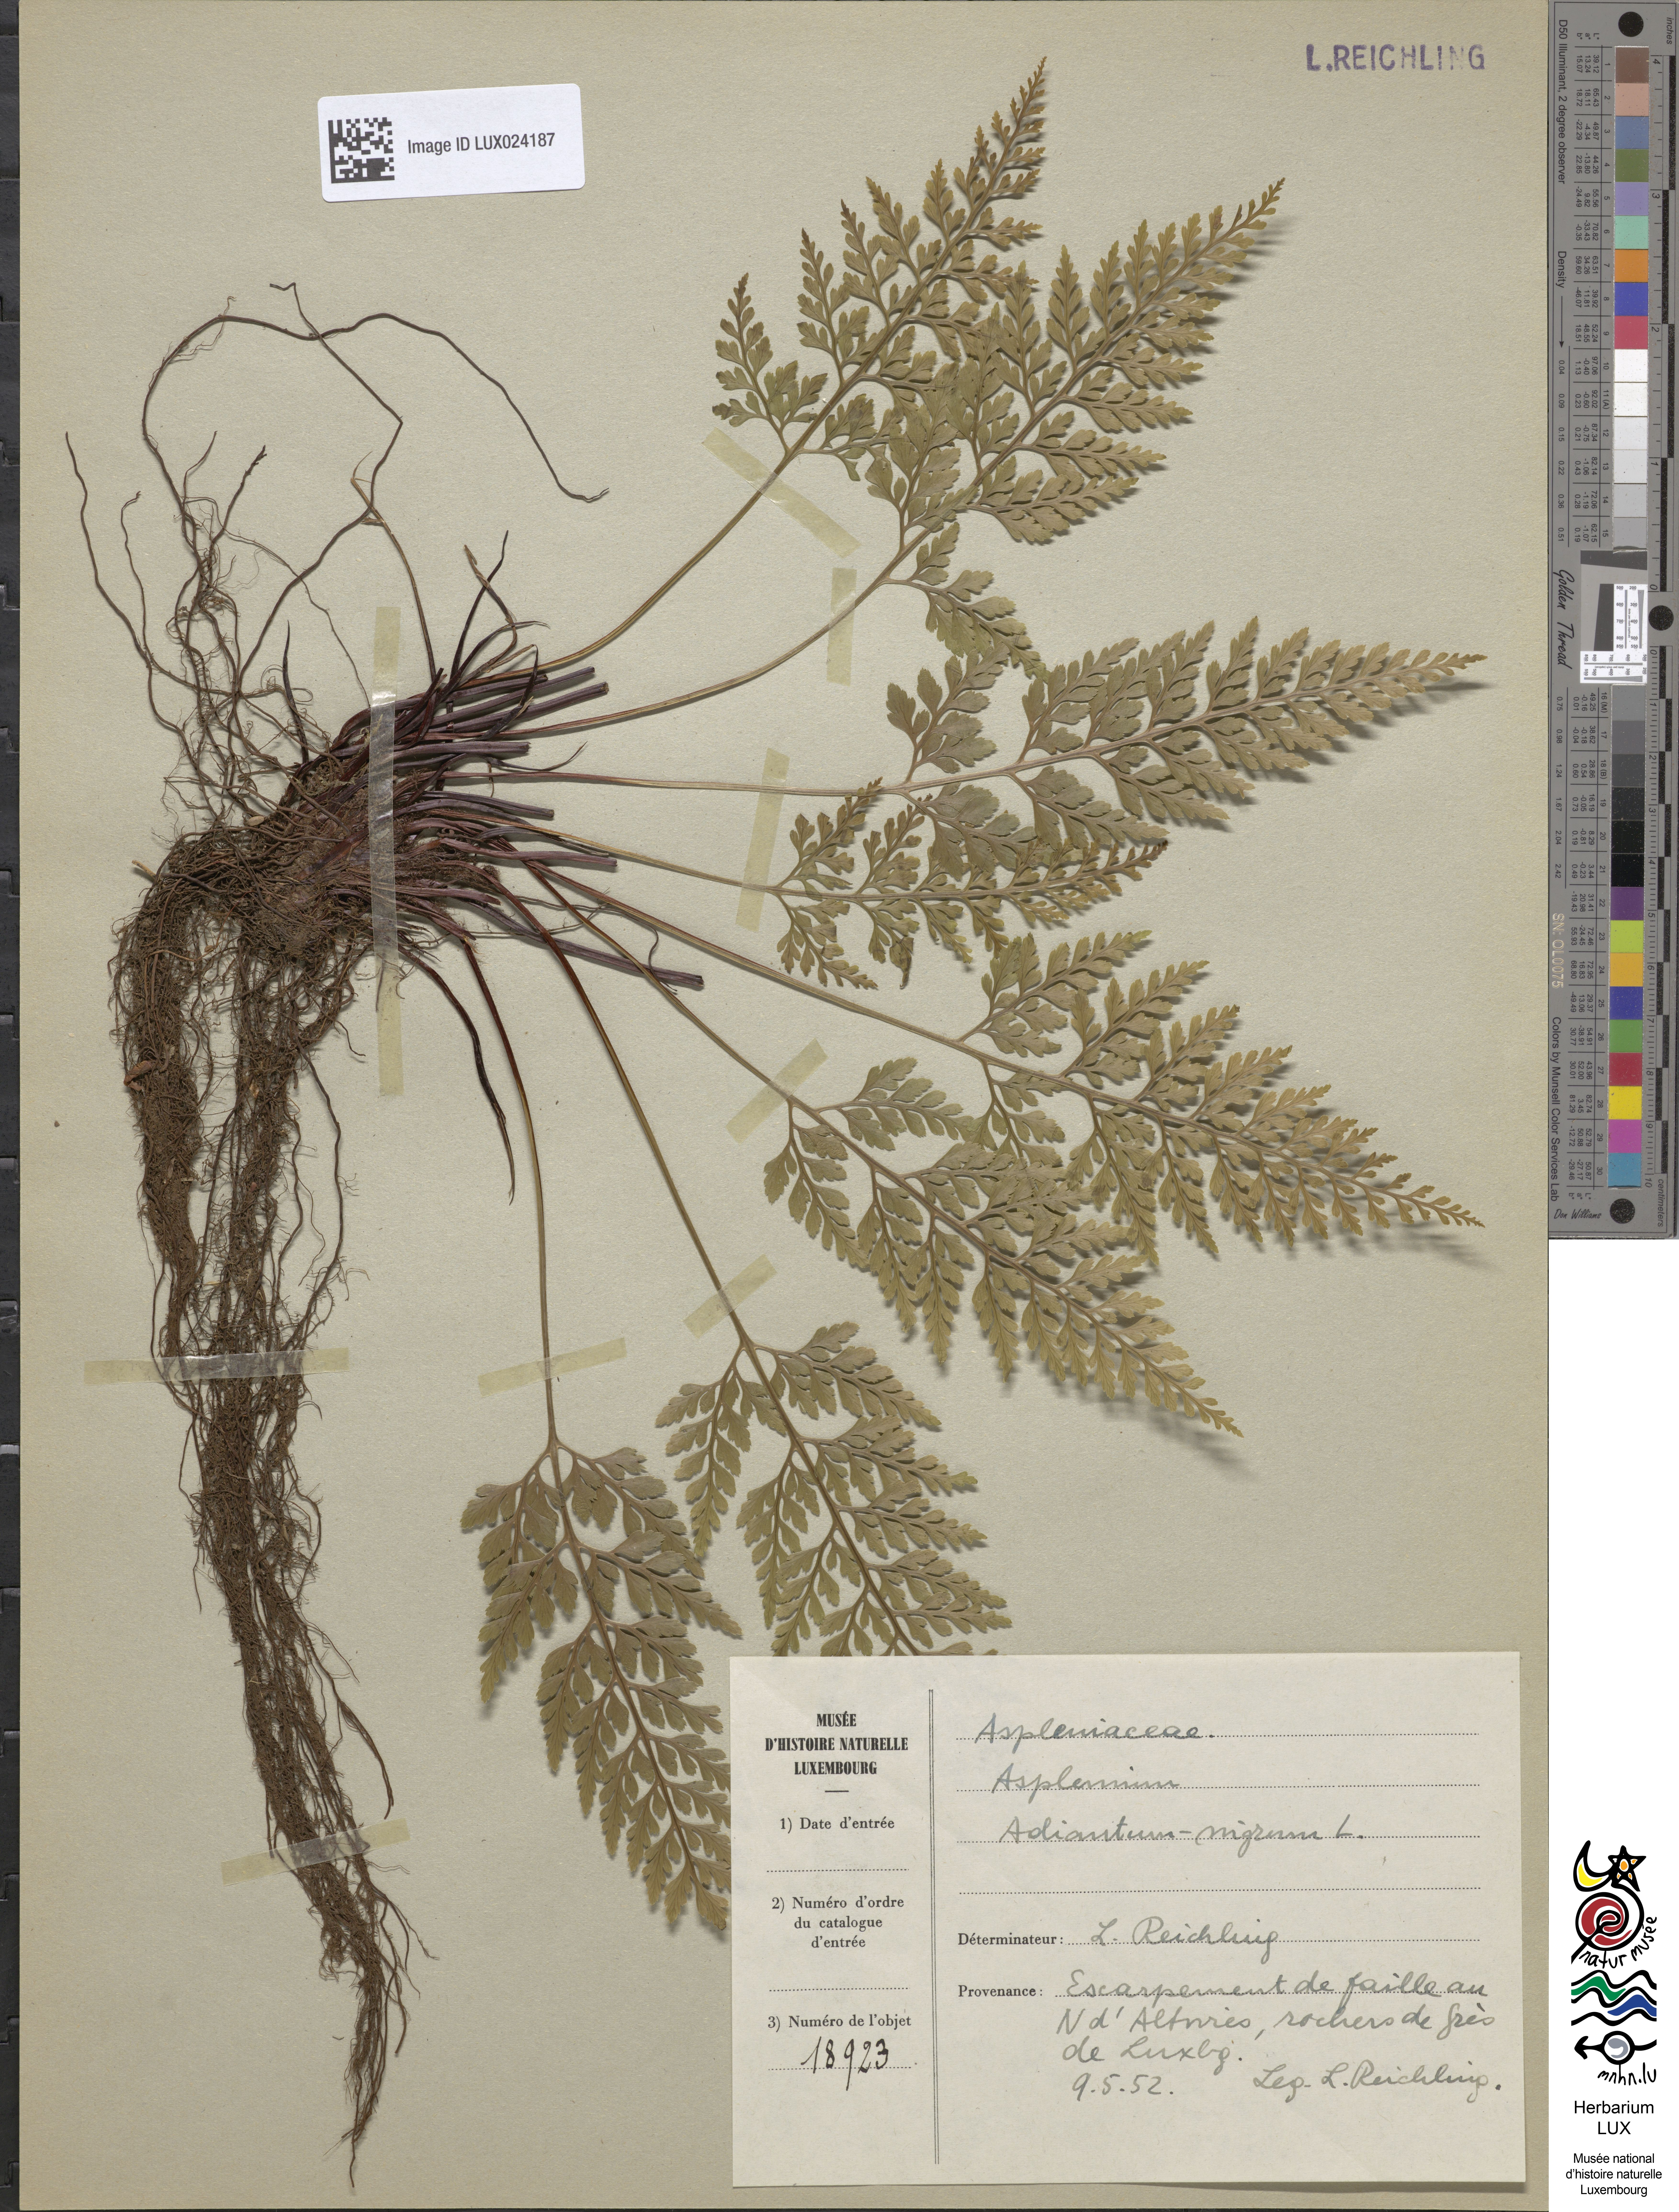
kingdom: Plantae
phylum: Tracheophyta
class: Polypodiopsida
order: Polypodiales
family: Aspleniaceae
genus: Asplenium
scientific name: Asplenium adiantum-nigrum
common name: Black spleenwort
